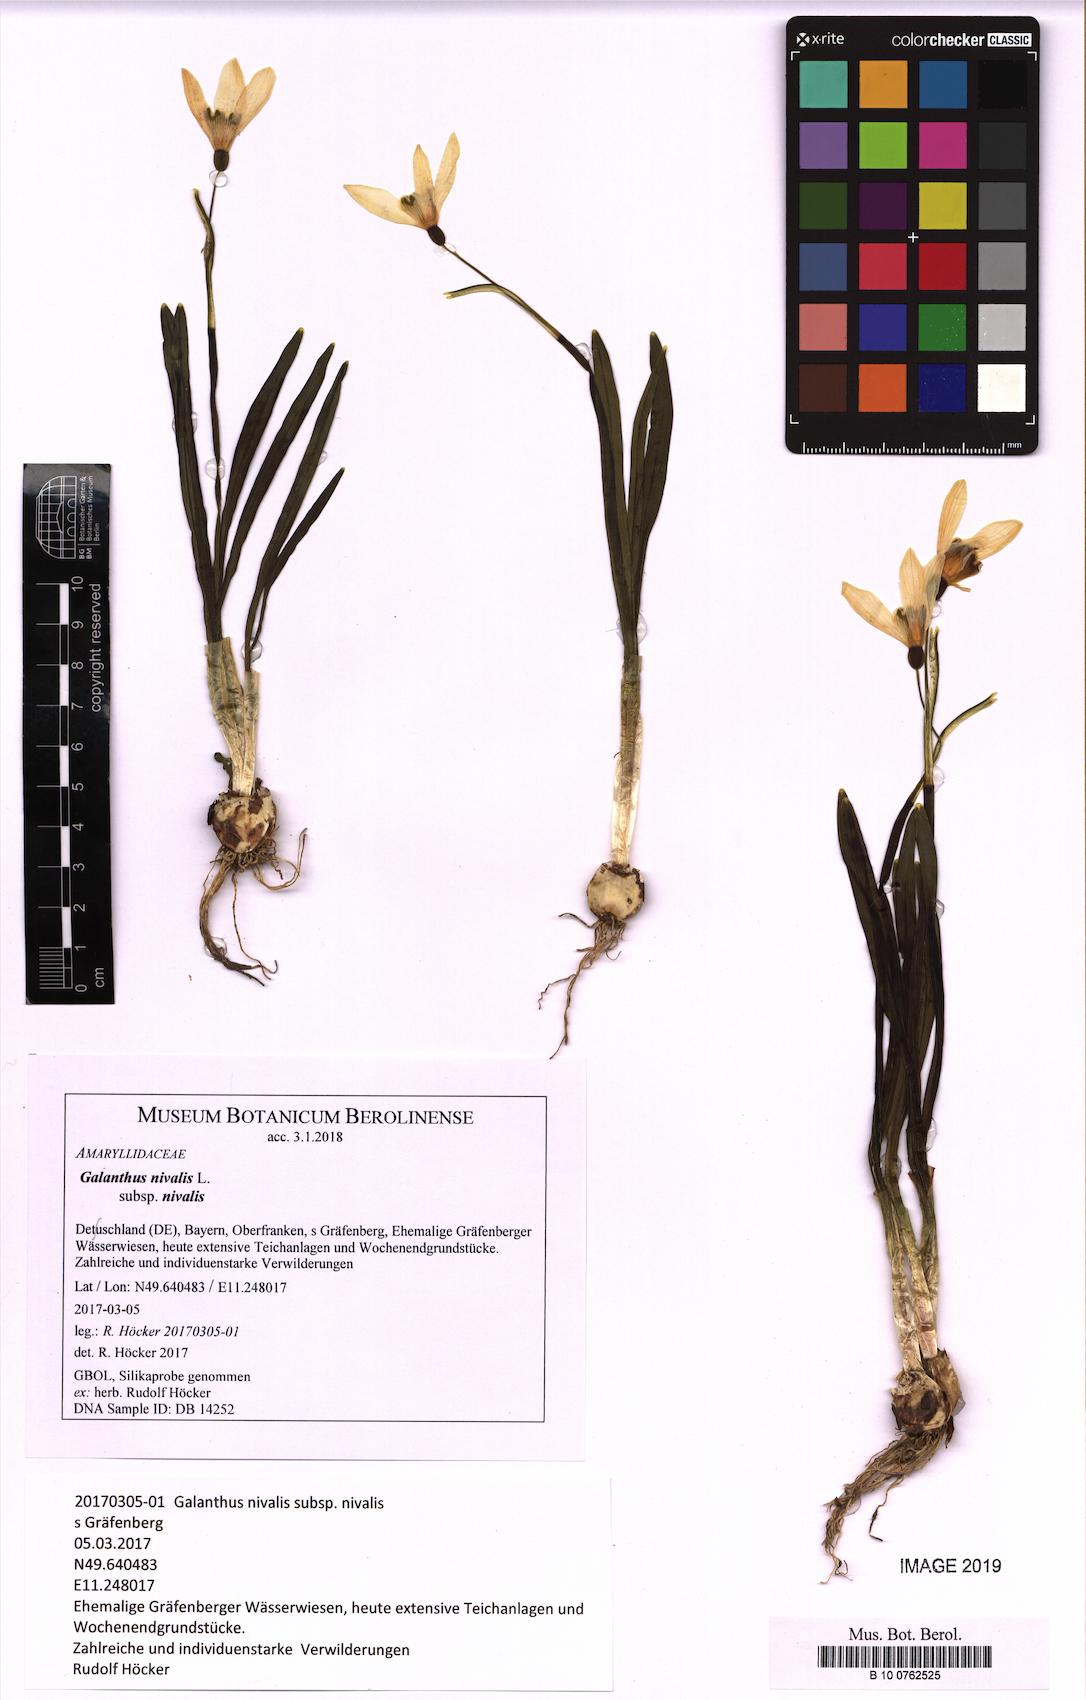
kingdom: Plantae
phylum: Tracheophyta
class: Liliopsida
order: Asparagales
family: Amaryllidaceae
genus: Galanthus
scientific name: Galanthus nivalis
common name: Snowdrop
